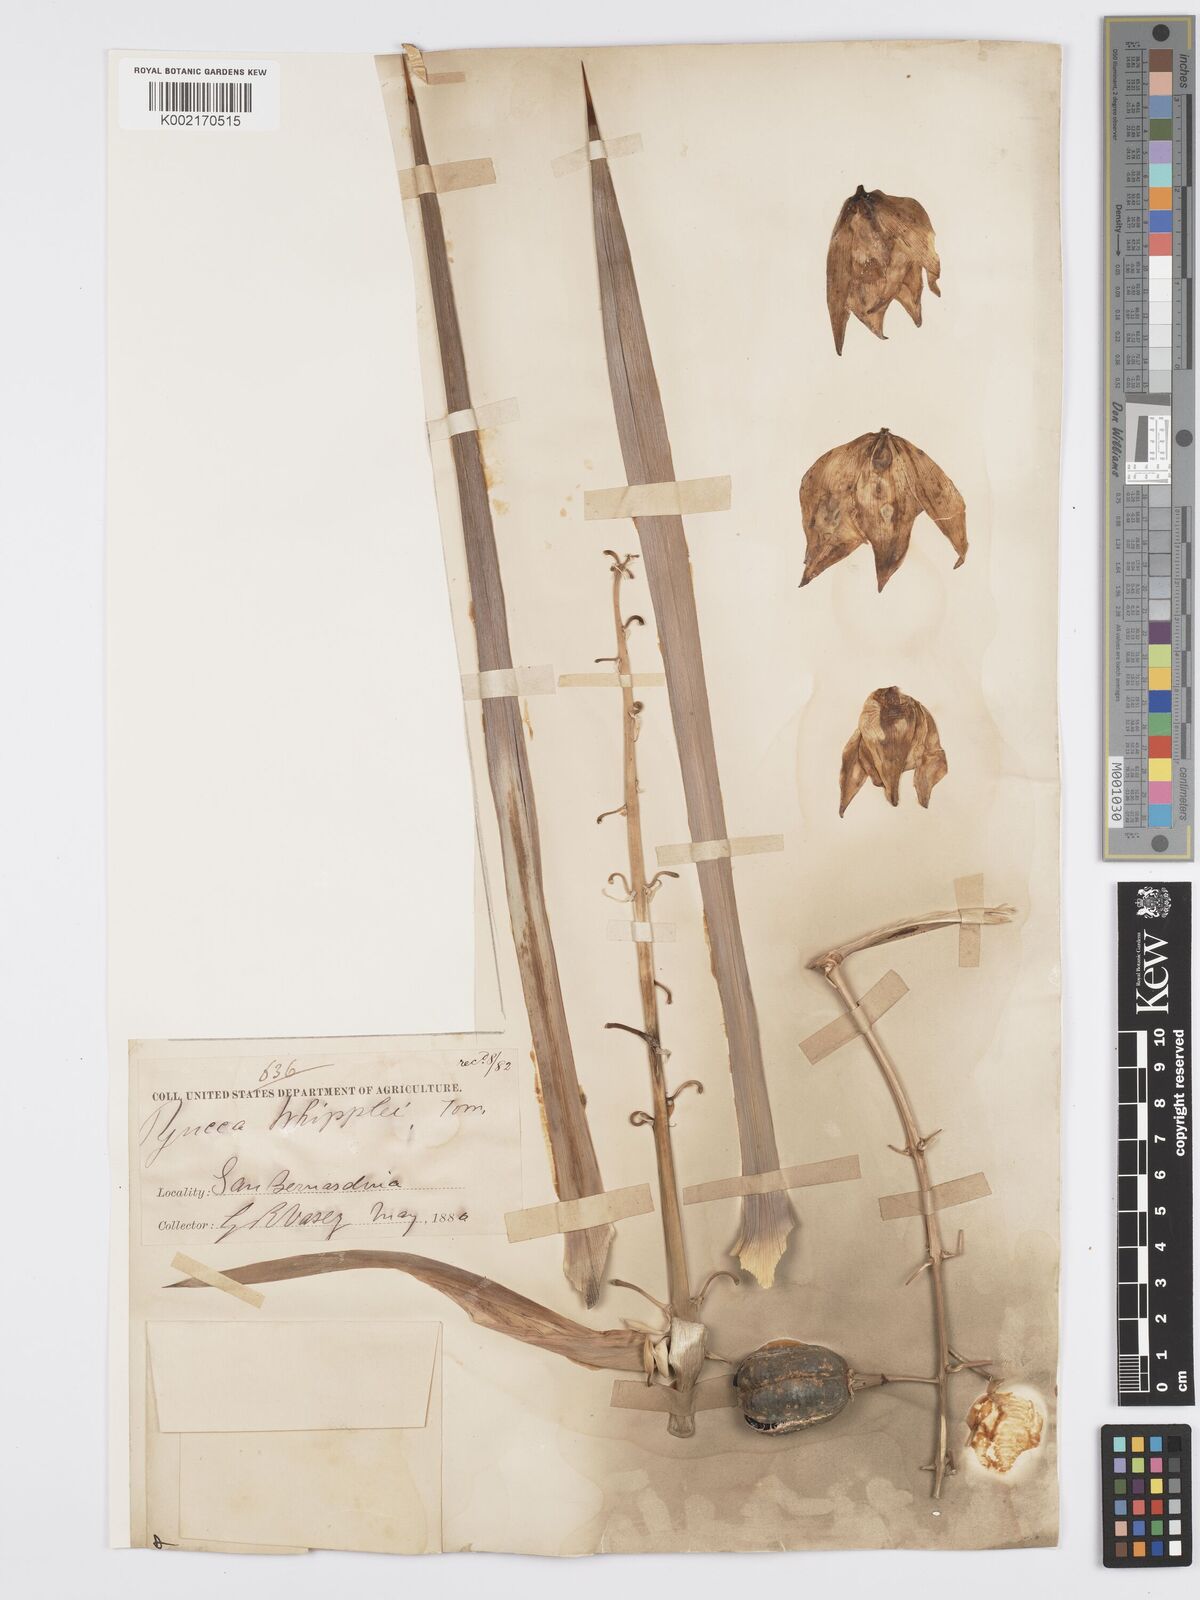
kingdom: Plantae
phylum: Tracheophyta
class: Liliopsida
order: Asparagales
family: Asparagaceae
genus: Hesperoyucca
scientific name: Hesperoyucca whipplei
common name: Our lord's-candle
